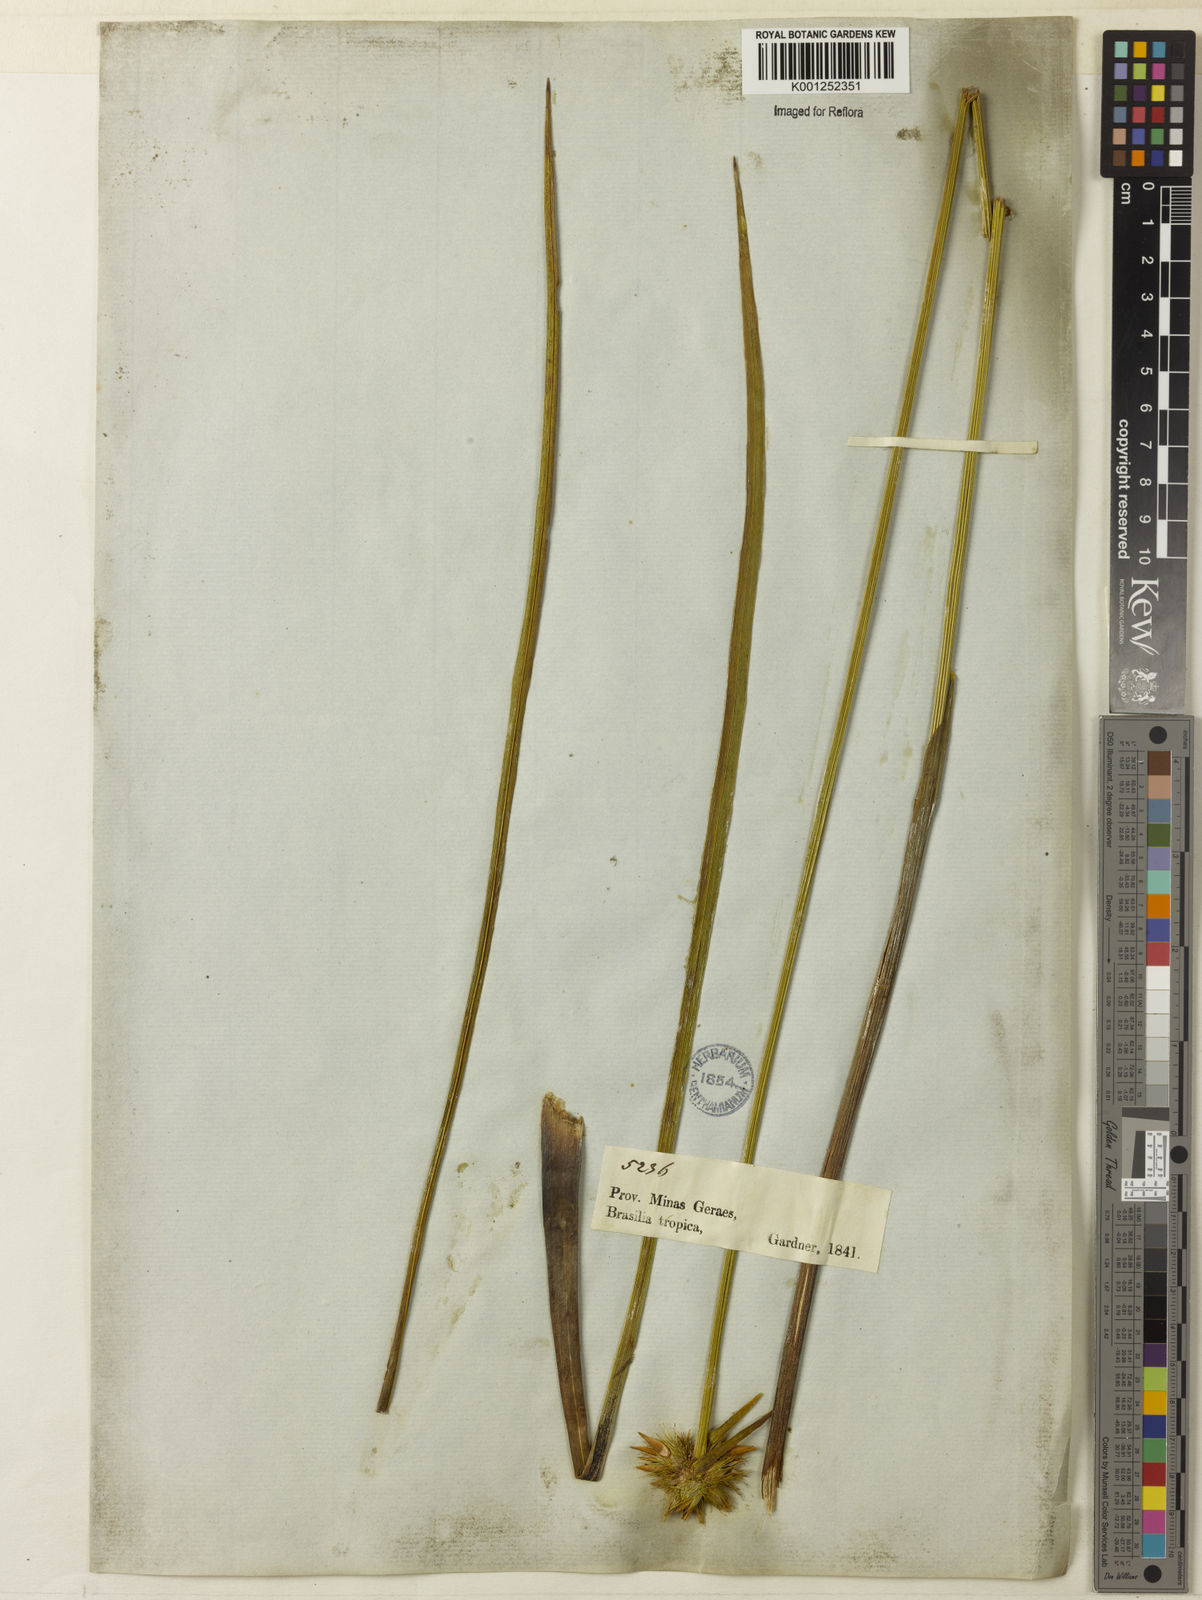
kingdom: Plantae
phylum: Tracheophyta
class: Liliopsida
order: Poales
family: Rapateaceae
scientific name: Rapateaceae
